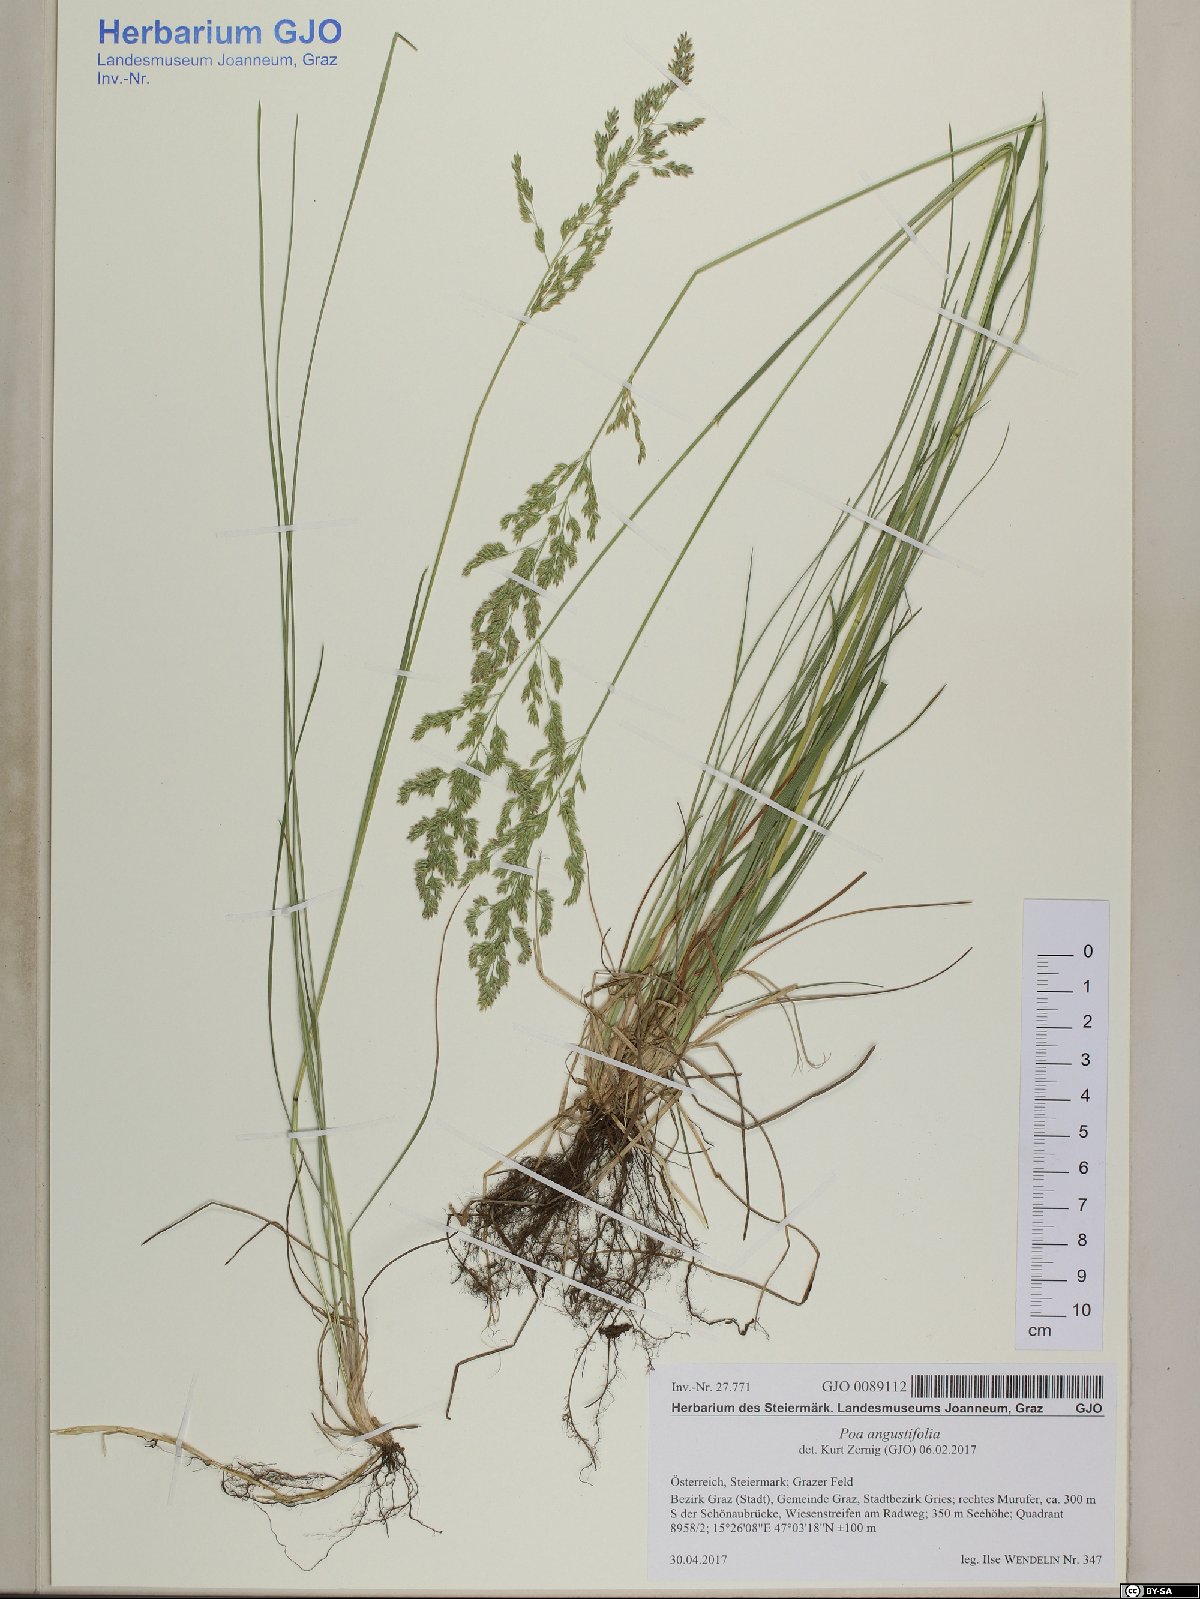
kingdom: Plantae
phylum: Tracheophyta
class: Liliopsida
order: Poales
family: Poaceae
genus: Poa
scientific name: Poa angustifolia
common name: Narrow-leaved meadow-grass
